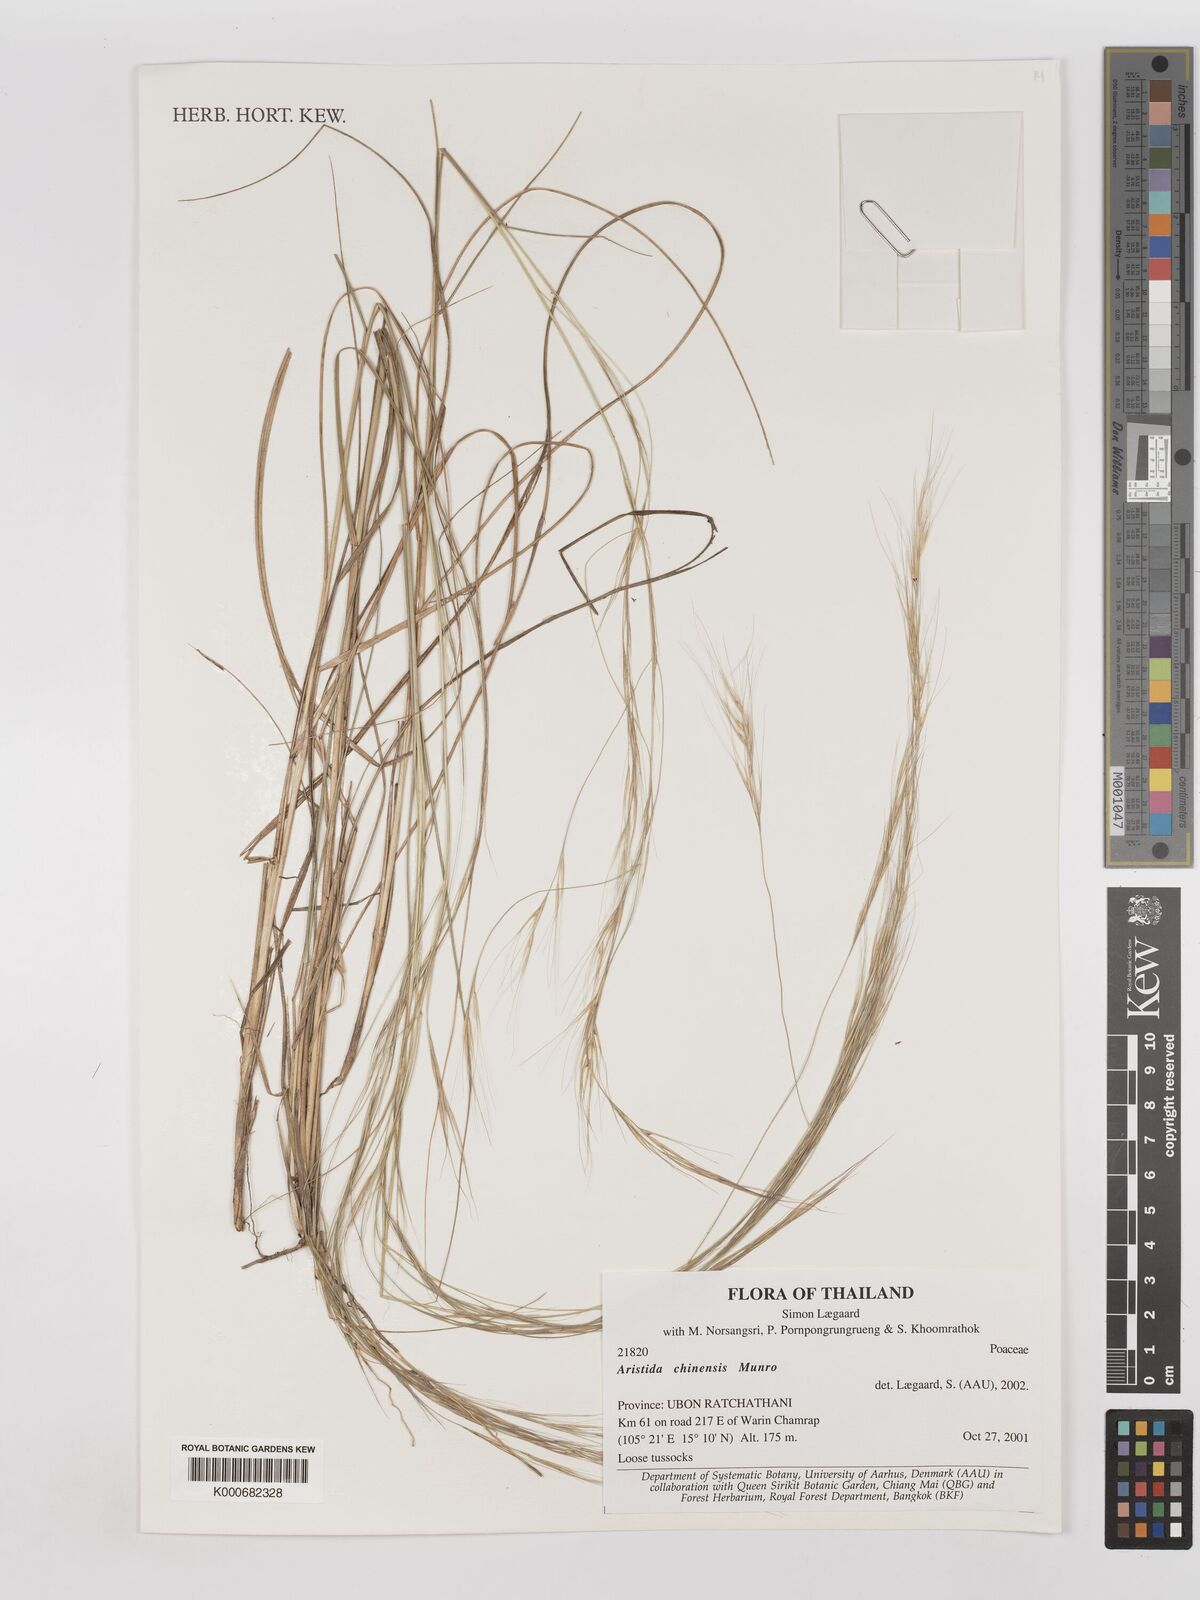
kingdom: Plantae
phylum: Tracheophyta
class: Liliopsida
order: Poales
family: Poaceae
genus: Aristida
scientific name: Aristida chinensis
